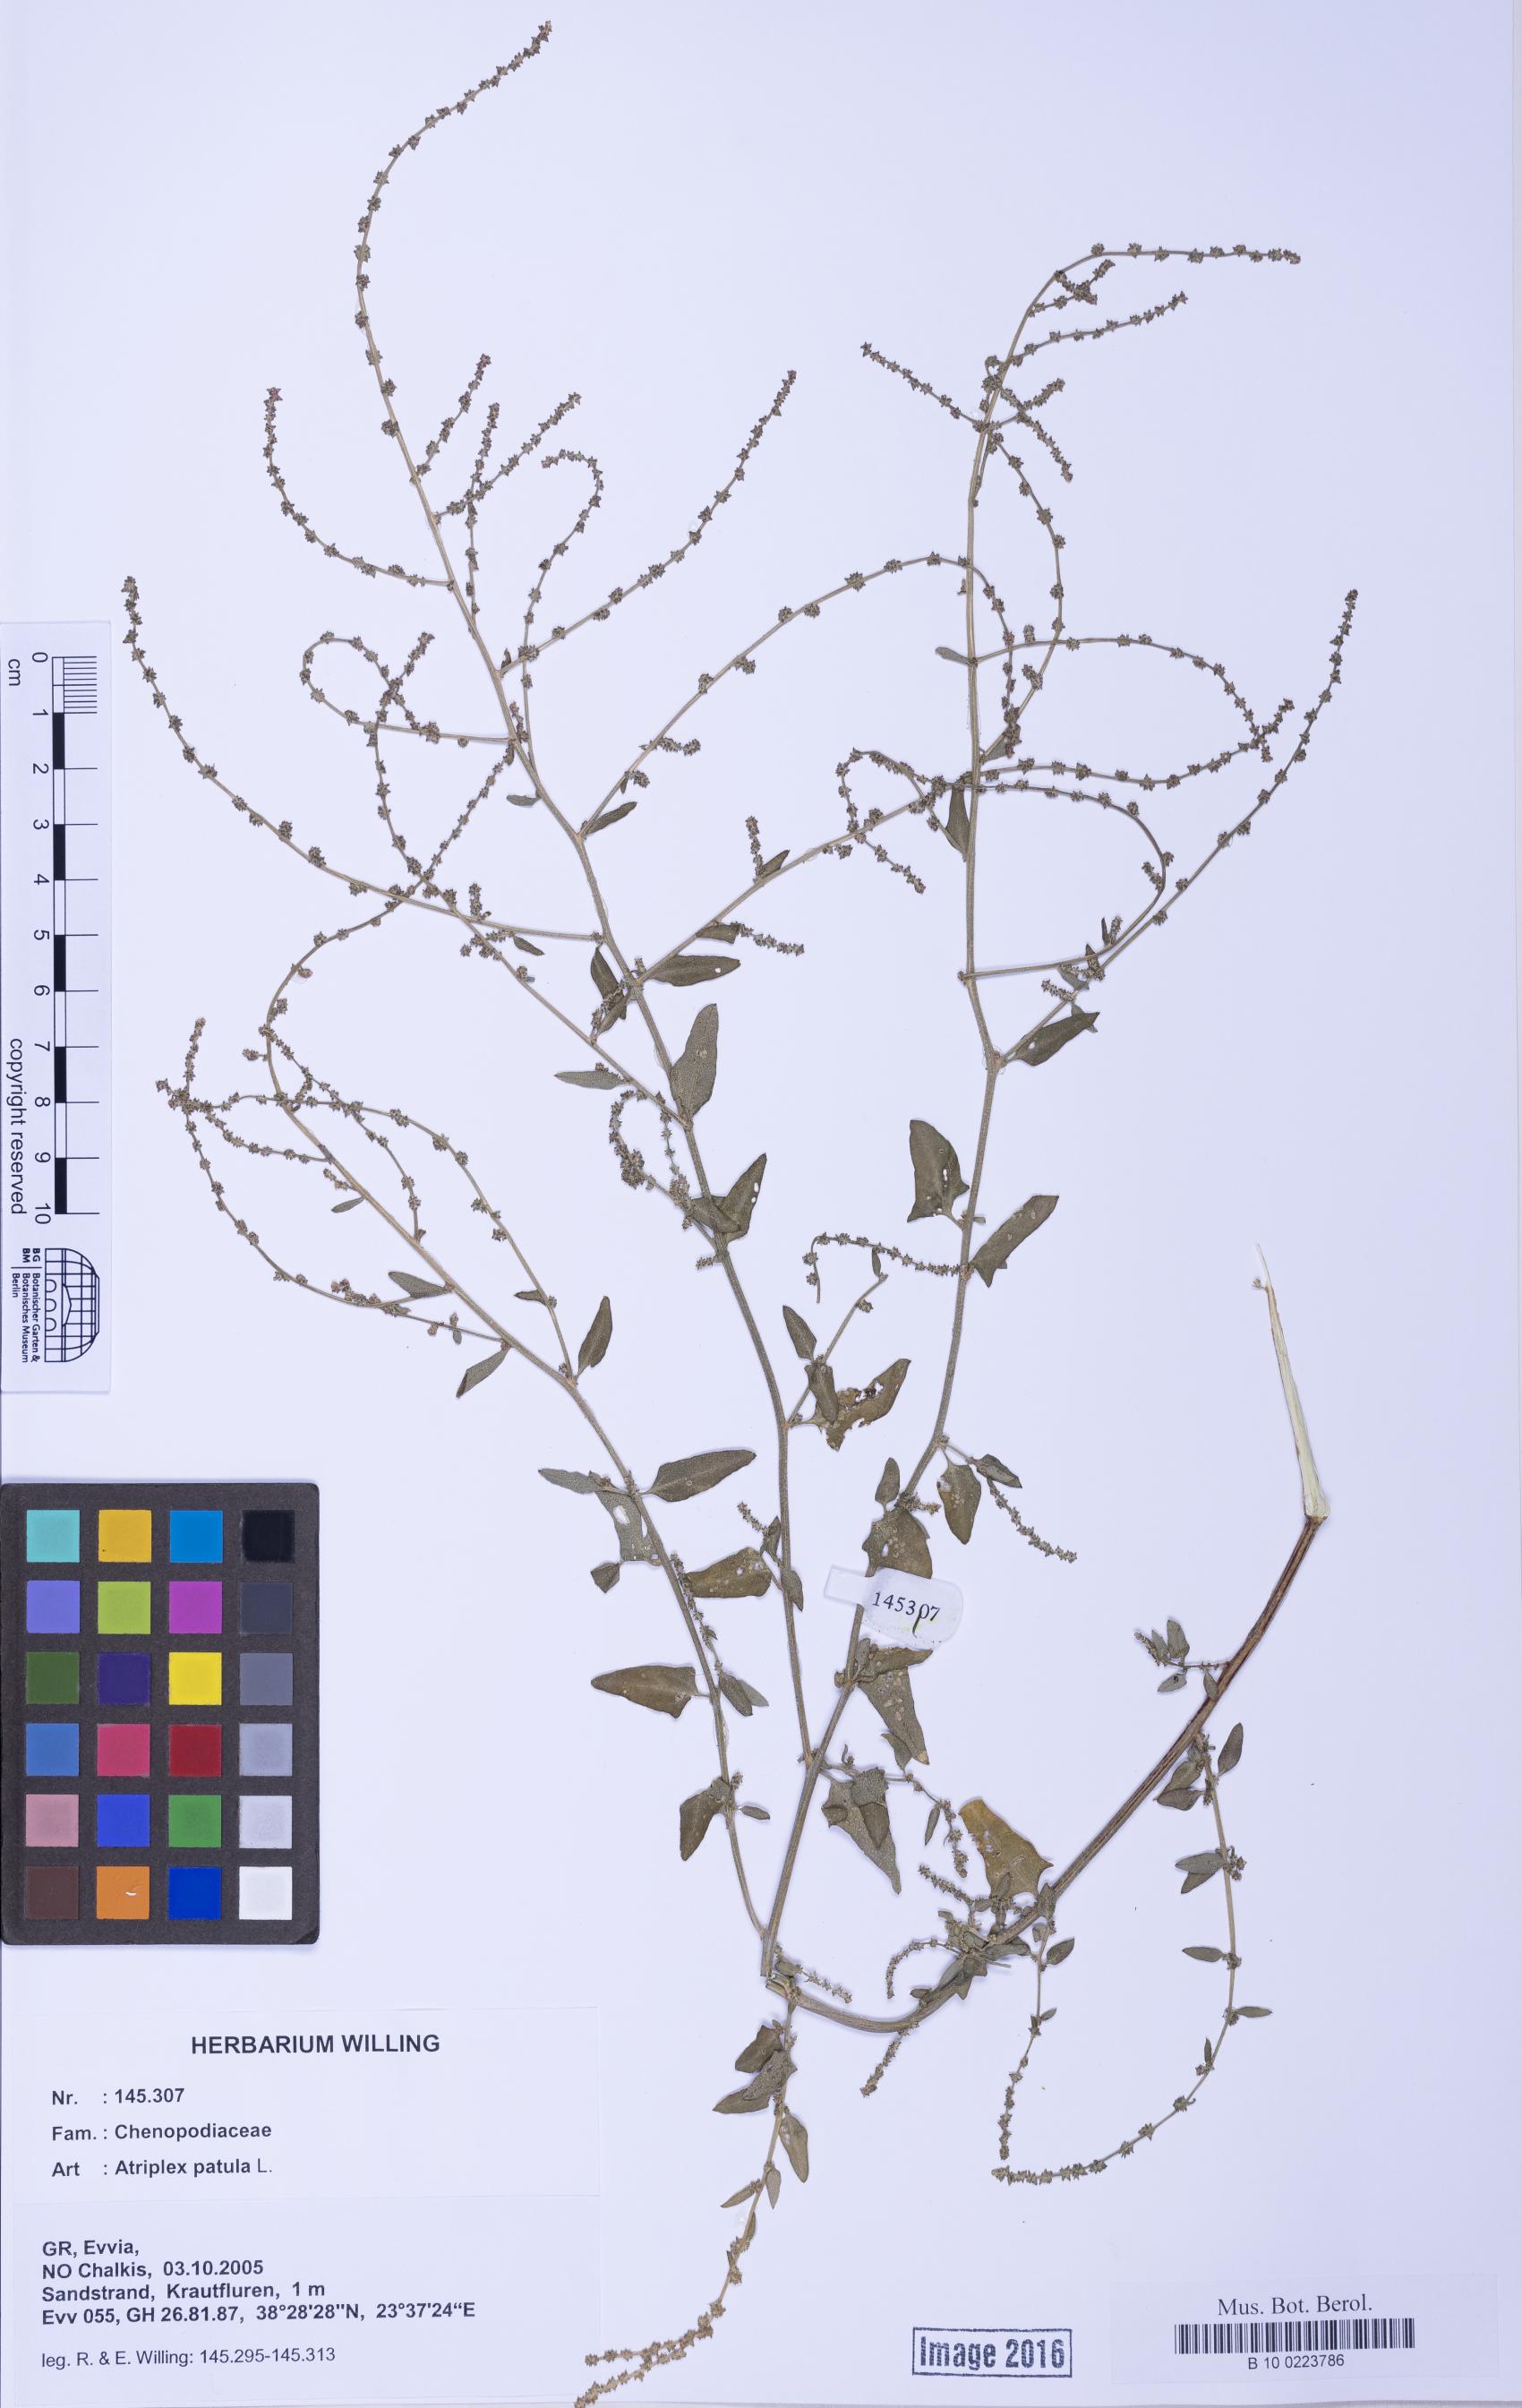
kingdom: Plantae
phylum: Tracheophyta
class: Magnoliopsida
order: Caryophyllales
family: Amaranthaceae
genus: Atriplex
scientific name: Atriplex prostrata
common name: Spear-leaved orache
